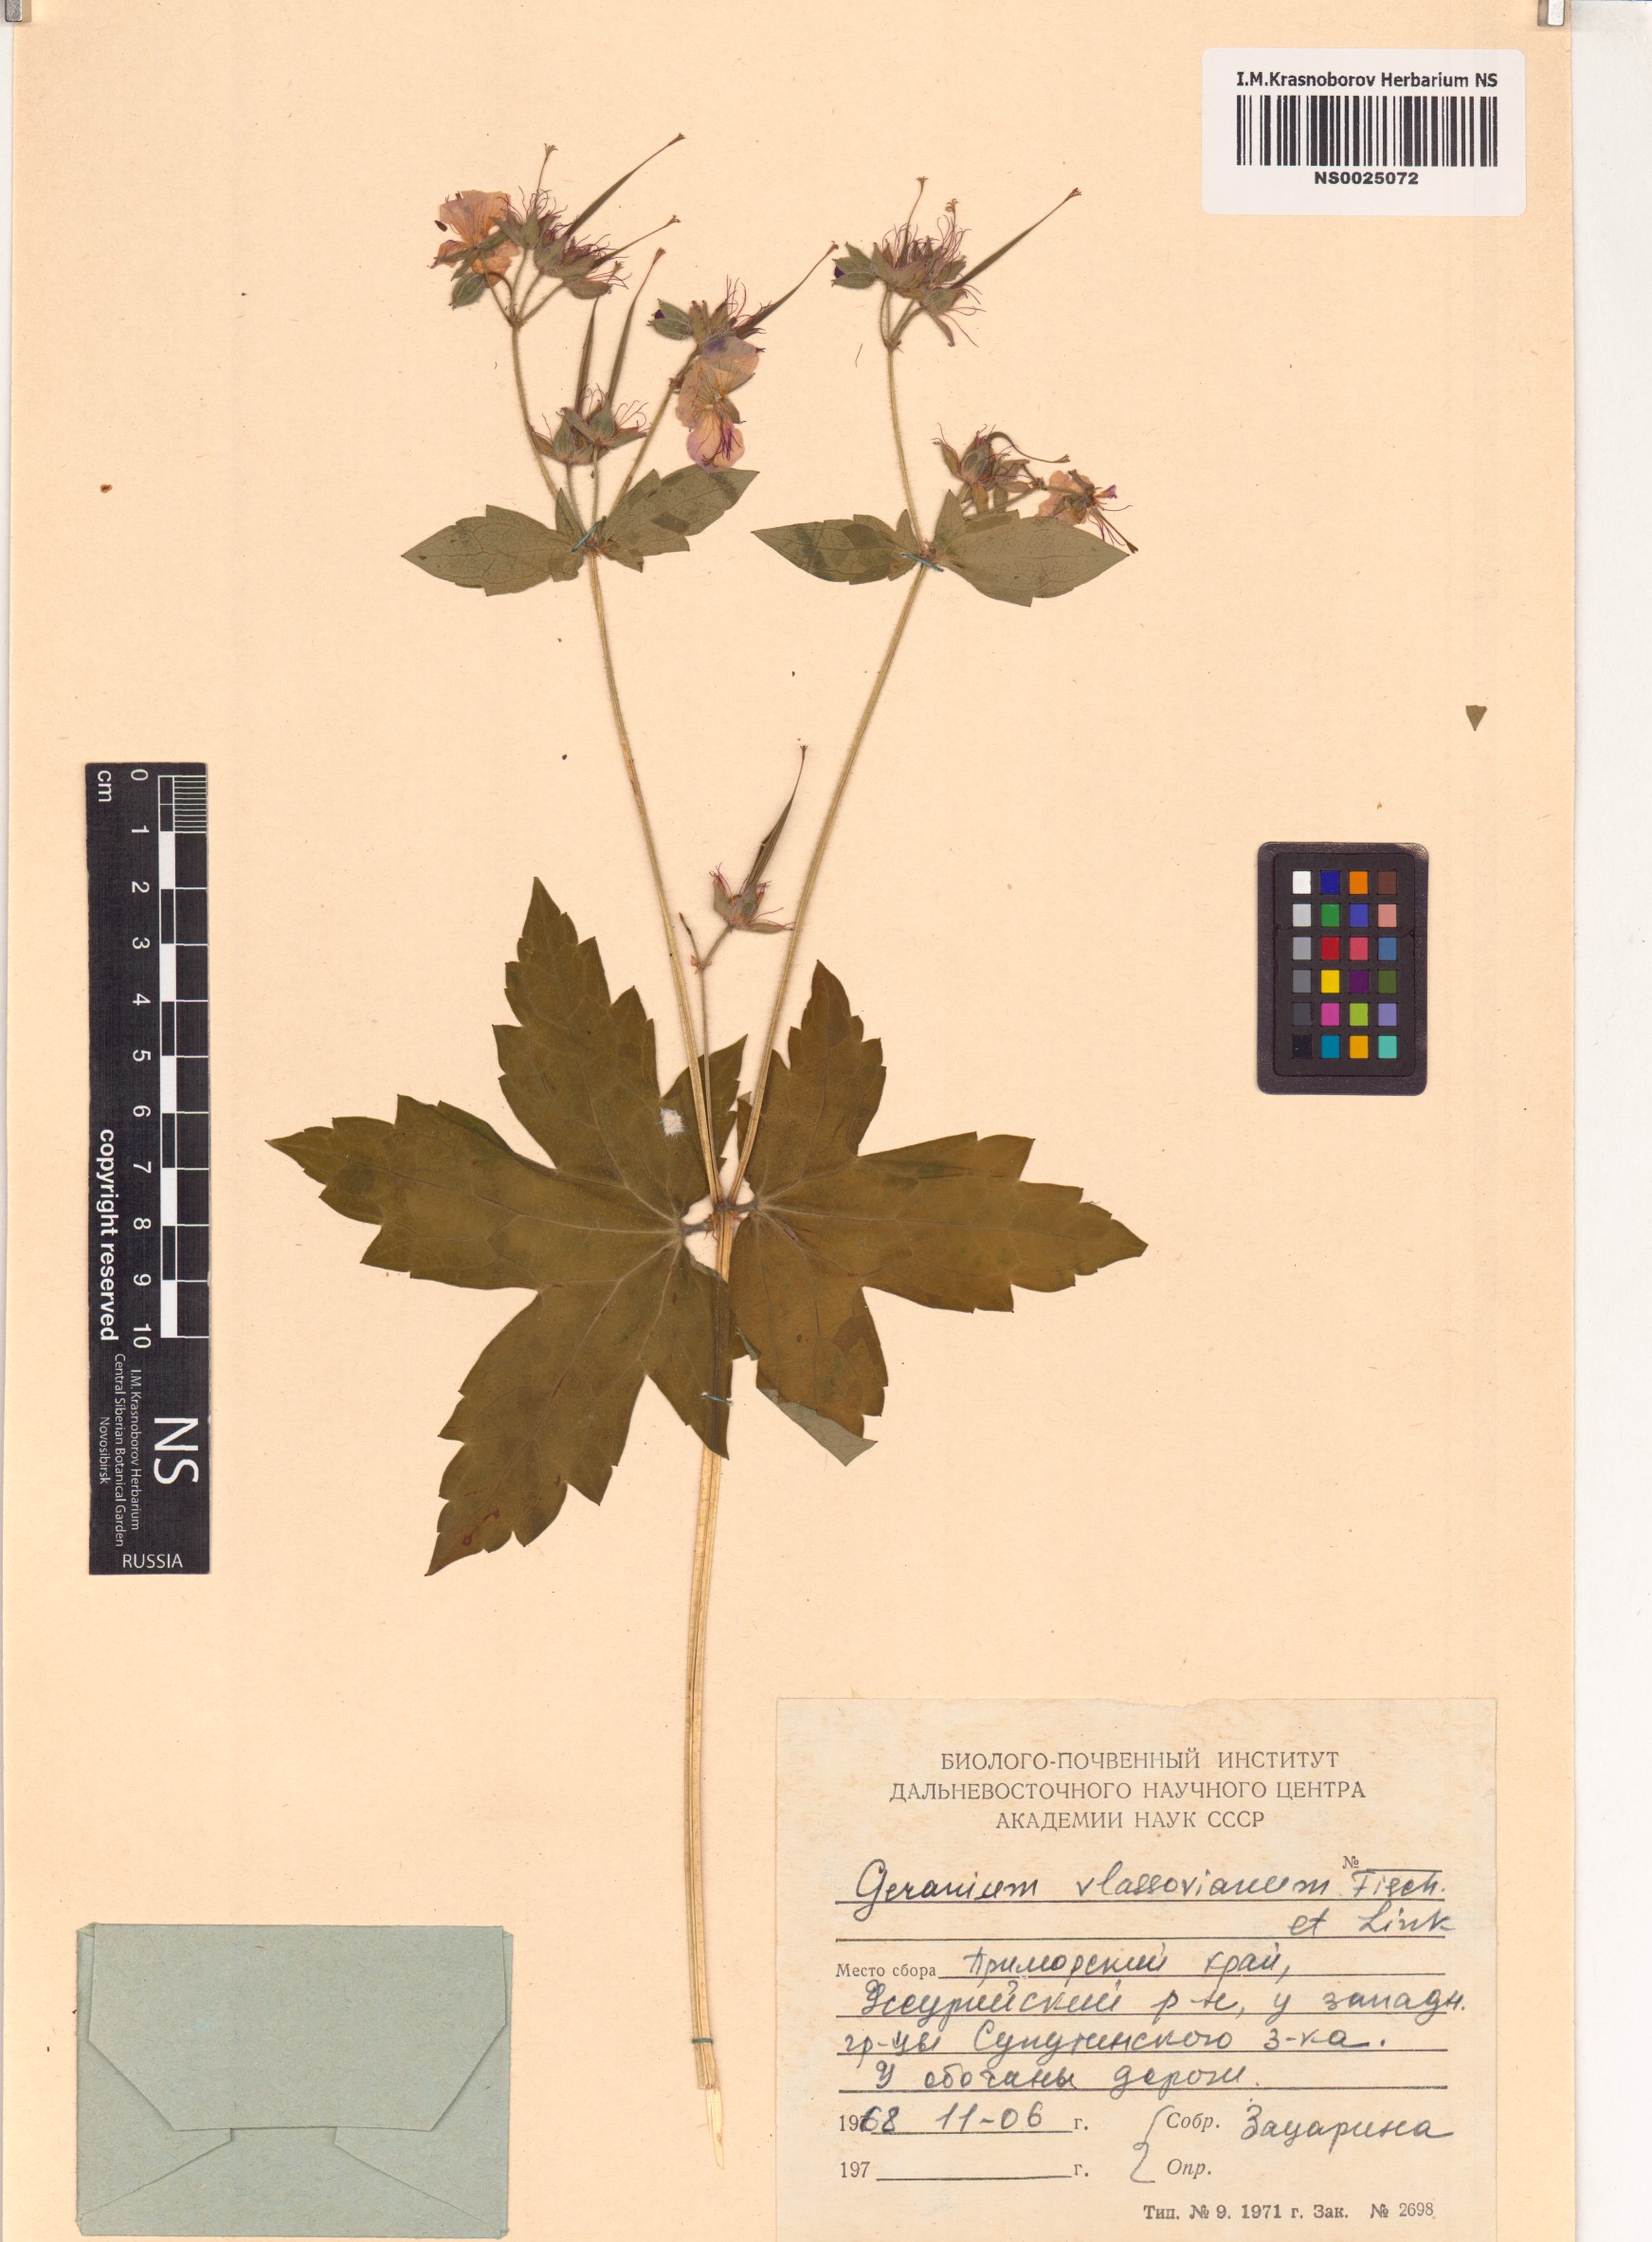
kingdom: Plantae
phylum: Tracheophyta
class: Magnoliopsida
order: Geraniales
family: Geraniaceae
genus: Geranium
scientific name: Geranium wlassovianum
